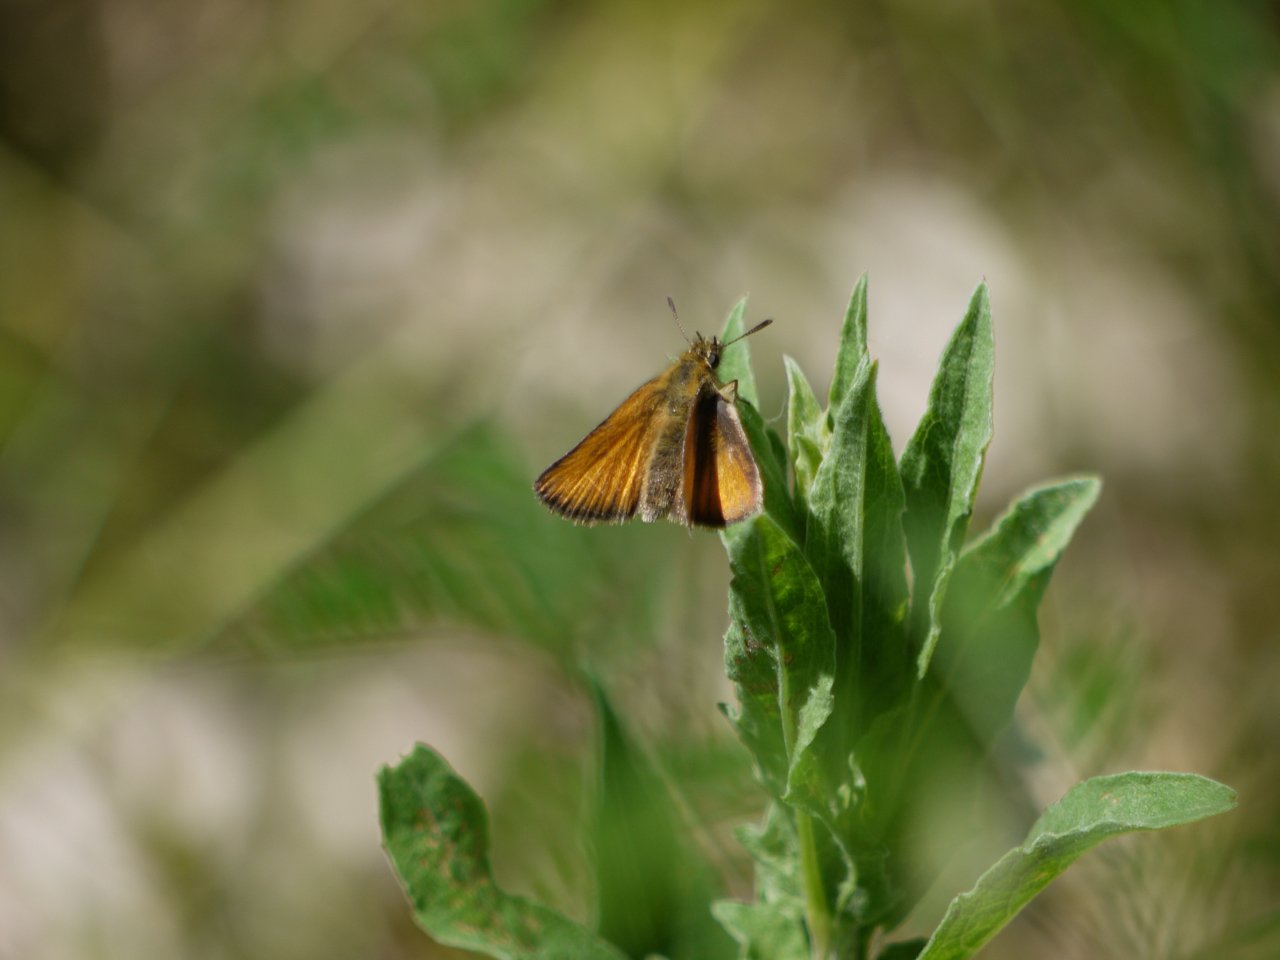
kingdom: Animalia
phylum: Arthropoda
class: Insecta
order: Lepidoptera
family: Hesperiidae
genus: Thymelicus
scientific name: Thymelicus lineola
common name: European Skipper
